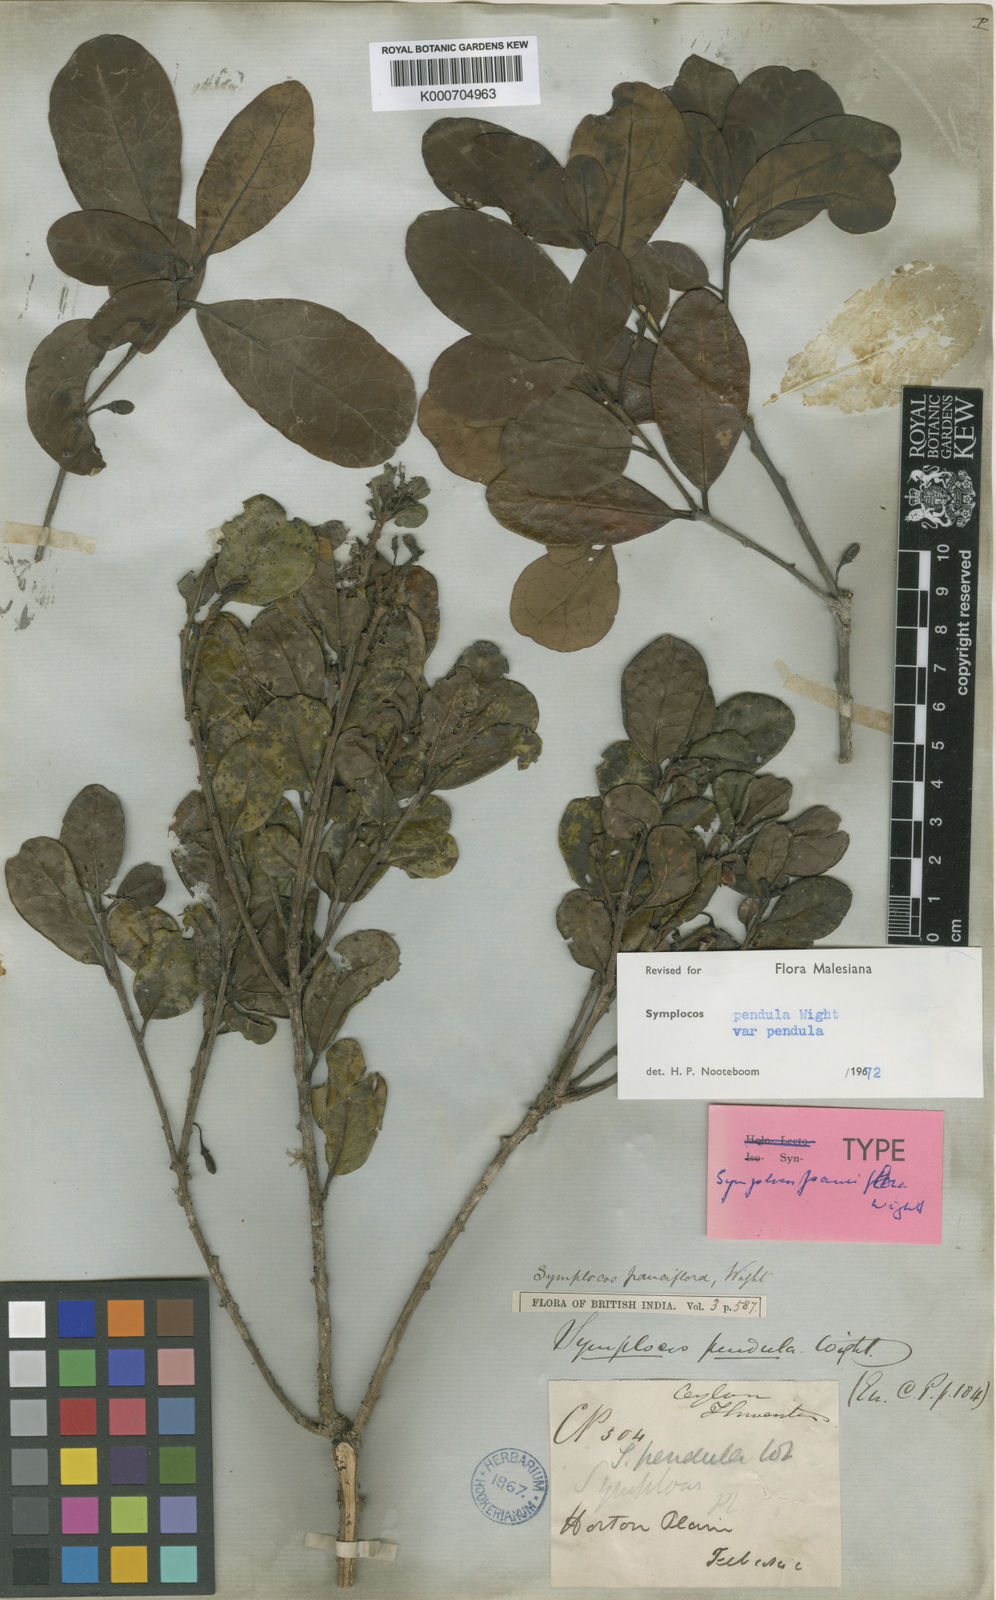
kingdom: Plantae
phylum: Tracheophyta
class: Magnoliopsida
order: Ericales
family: Symplocaceae
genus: Symplocos
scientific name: Symplocos pendula
